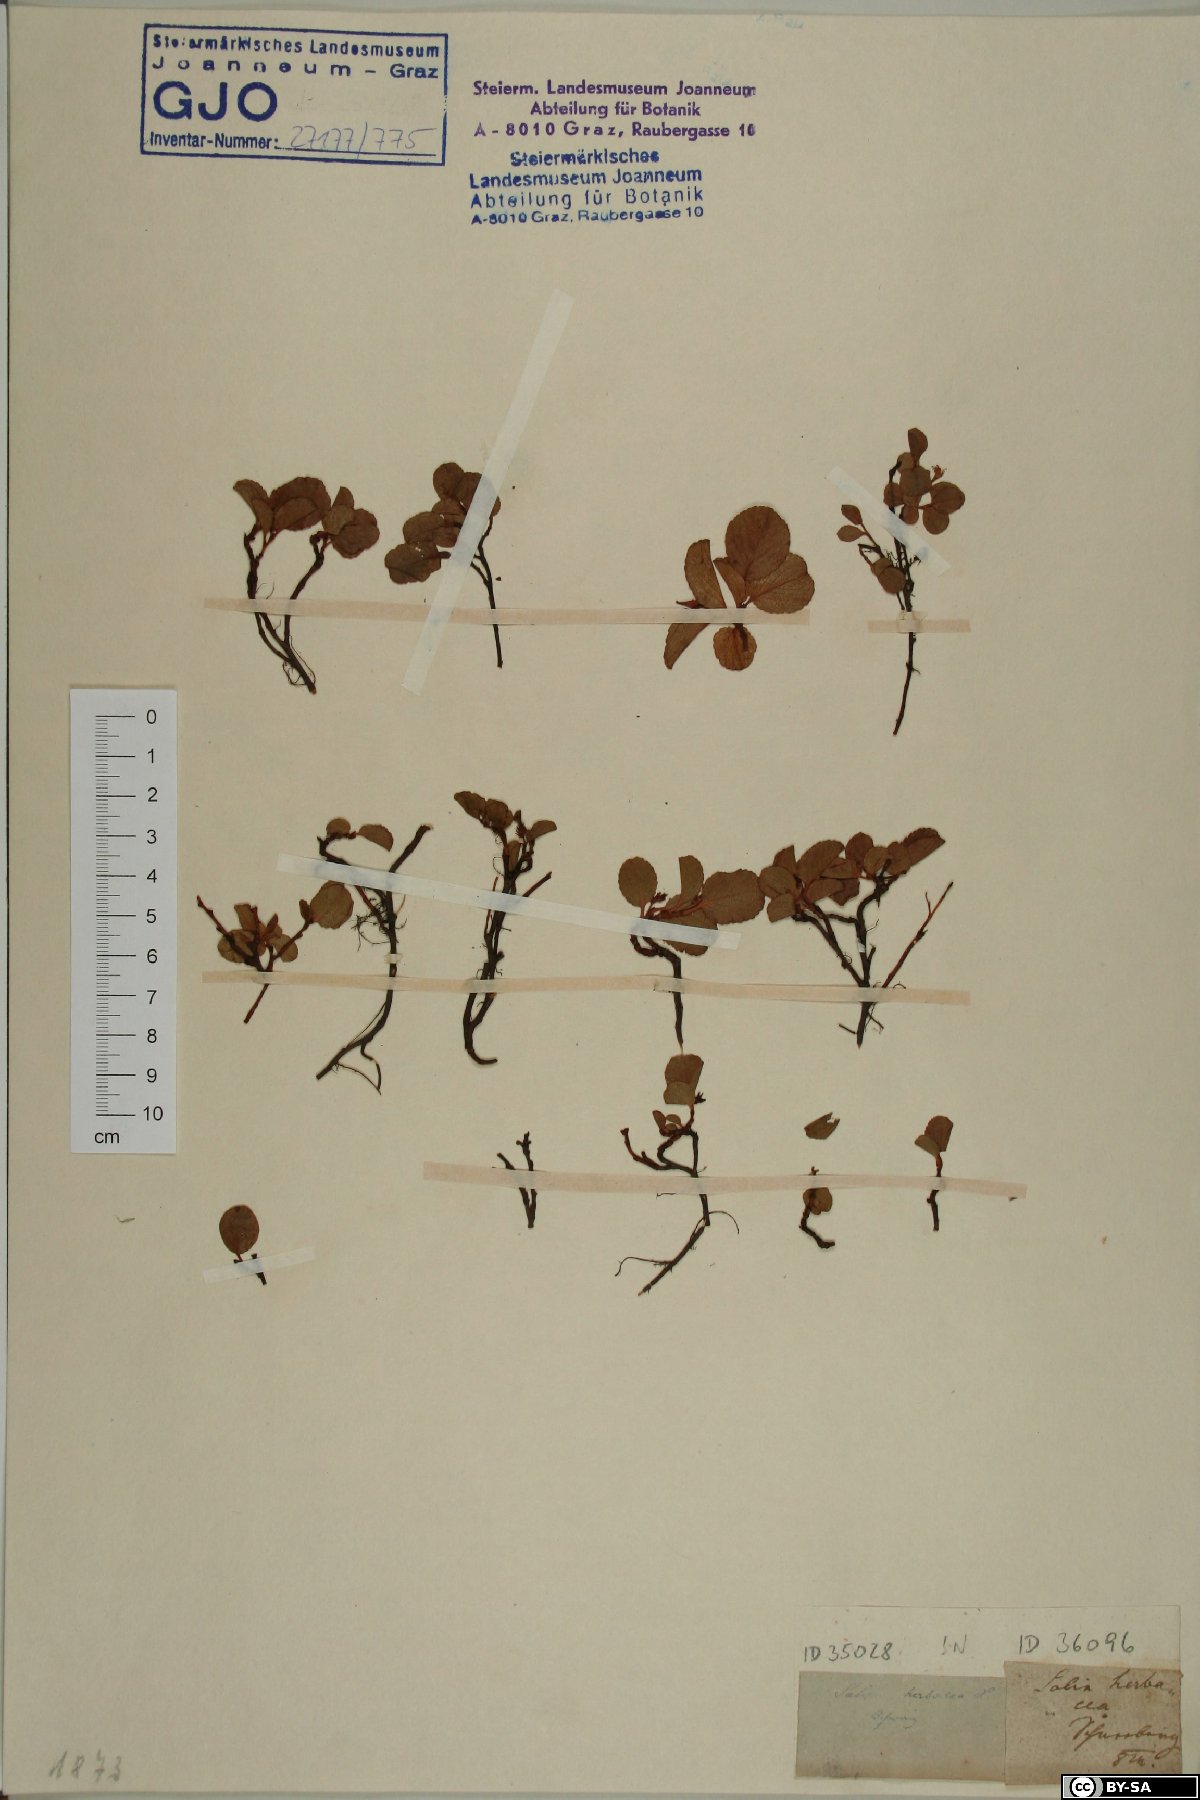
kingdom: Plantae
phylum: Tracheophyta
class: Magnoliopsida
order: Malpighiales
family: Salicaceae
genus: Salix
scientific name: Salix herbacea
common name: Dwarf willow
